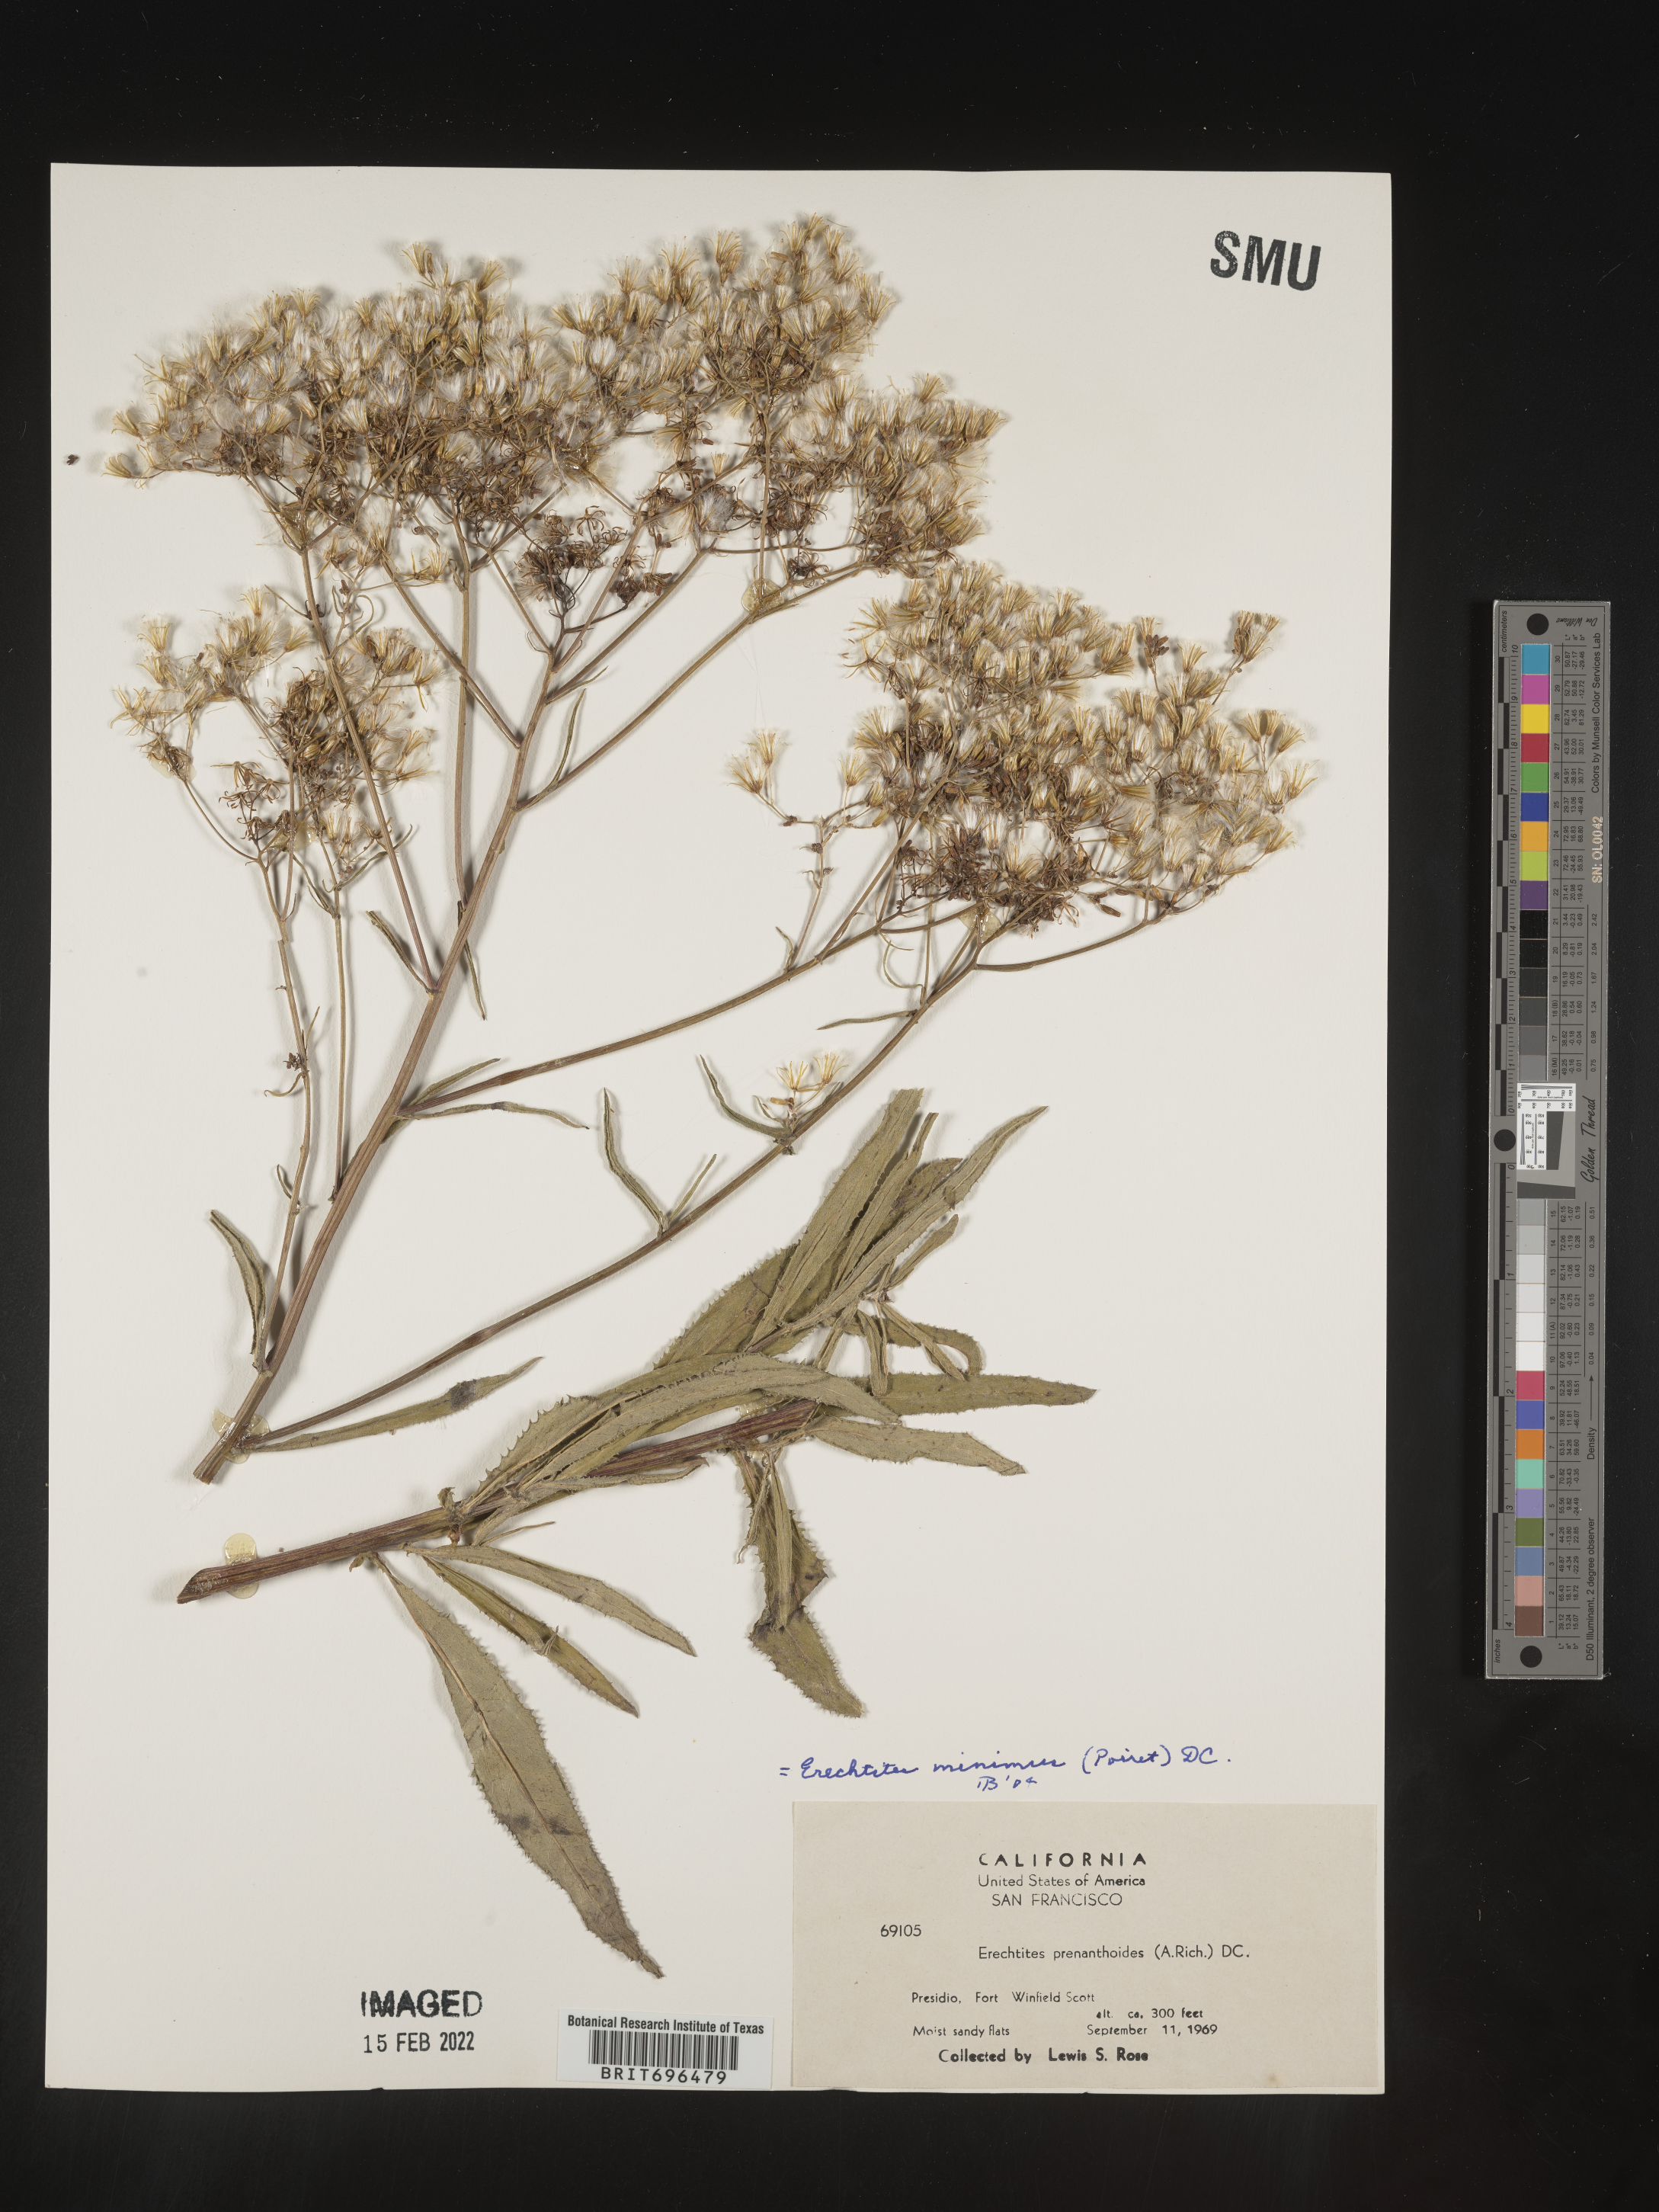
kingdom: Plantae
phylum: Tracheophyta
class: Magnoliopsida
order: Asterales
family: Asteraceae
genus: Senecio
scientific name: Senecio minimus
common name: Toothed fireweed
